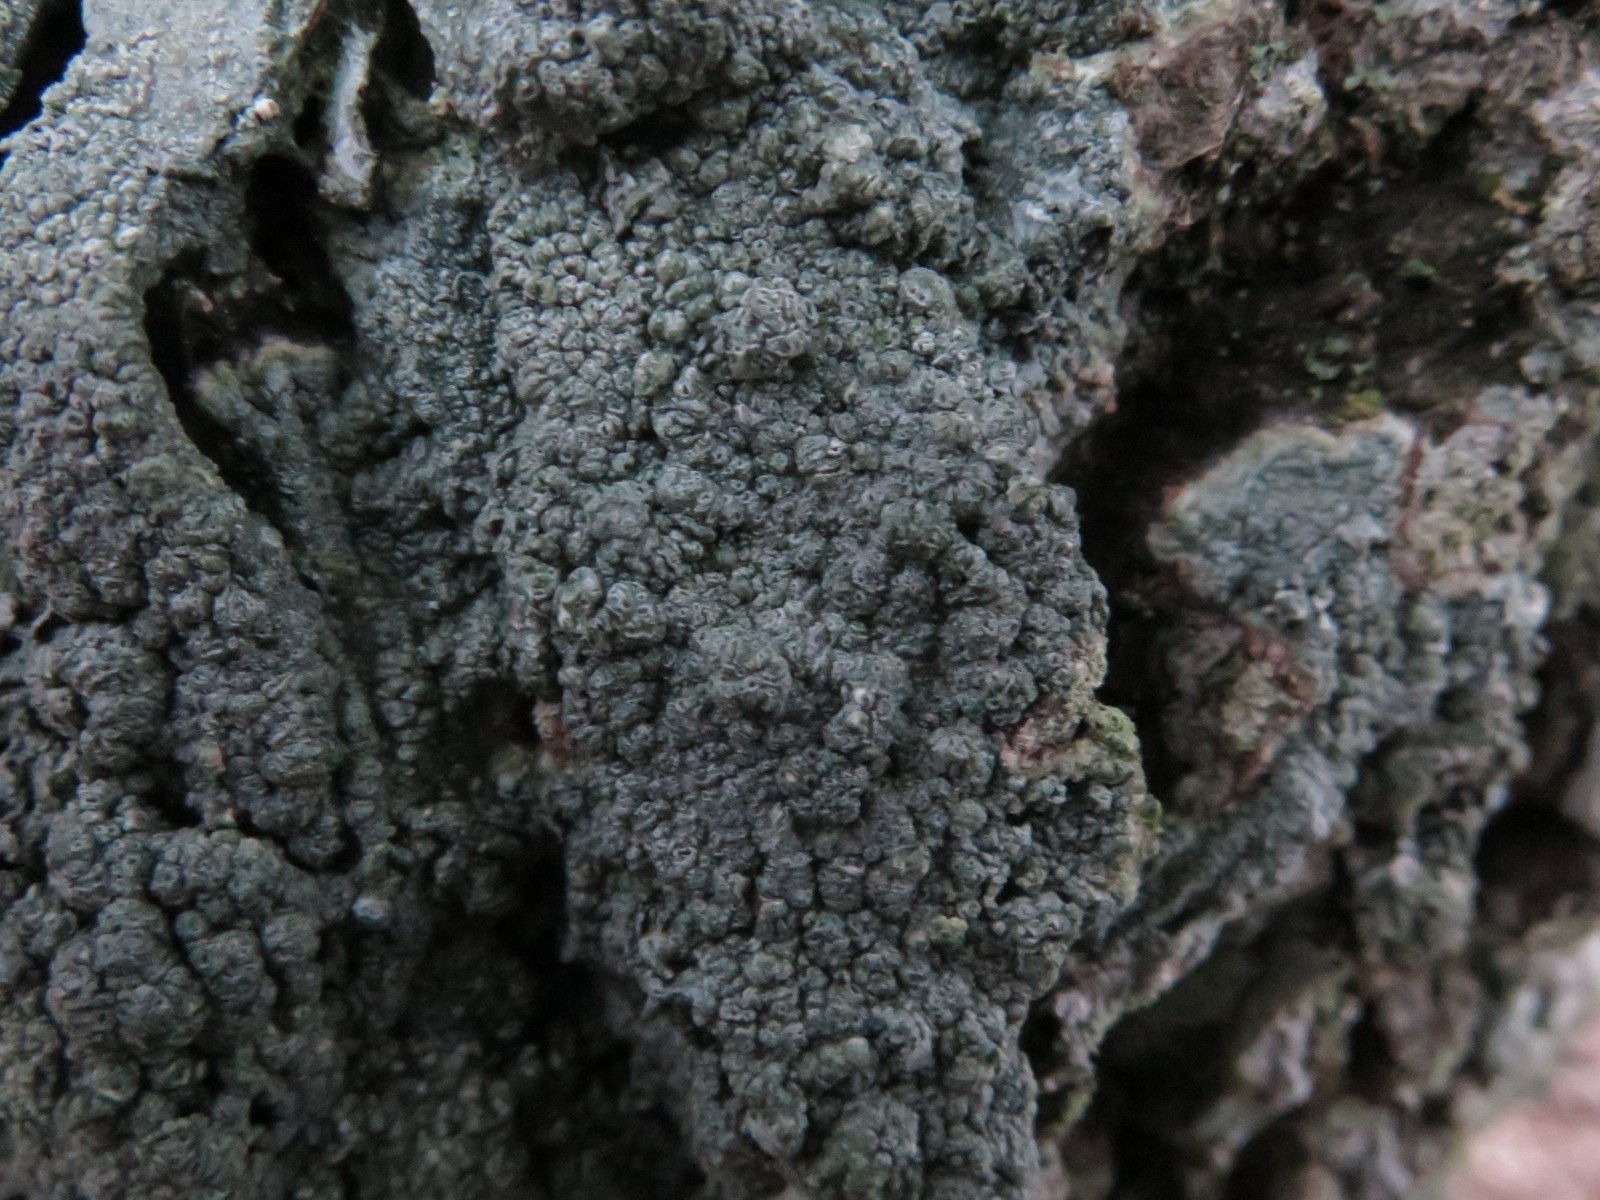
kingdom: Fungi
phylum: Ascomycota
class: Lecanoromycetes
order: Pertusariales
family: Pertusariaceae
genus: Pertusaria
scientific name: Pertusaria hymenea
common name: åben prikvortelav
